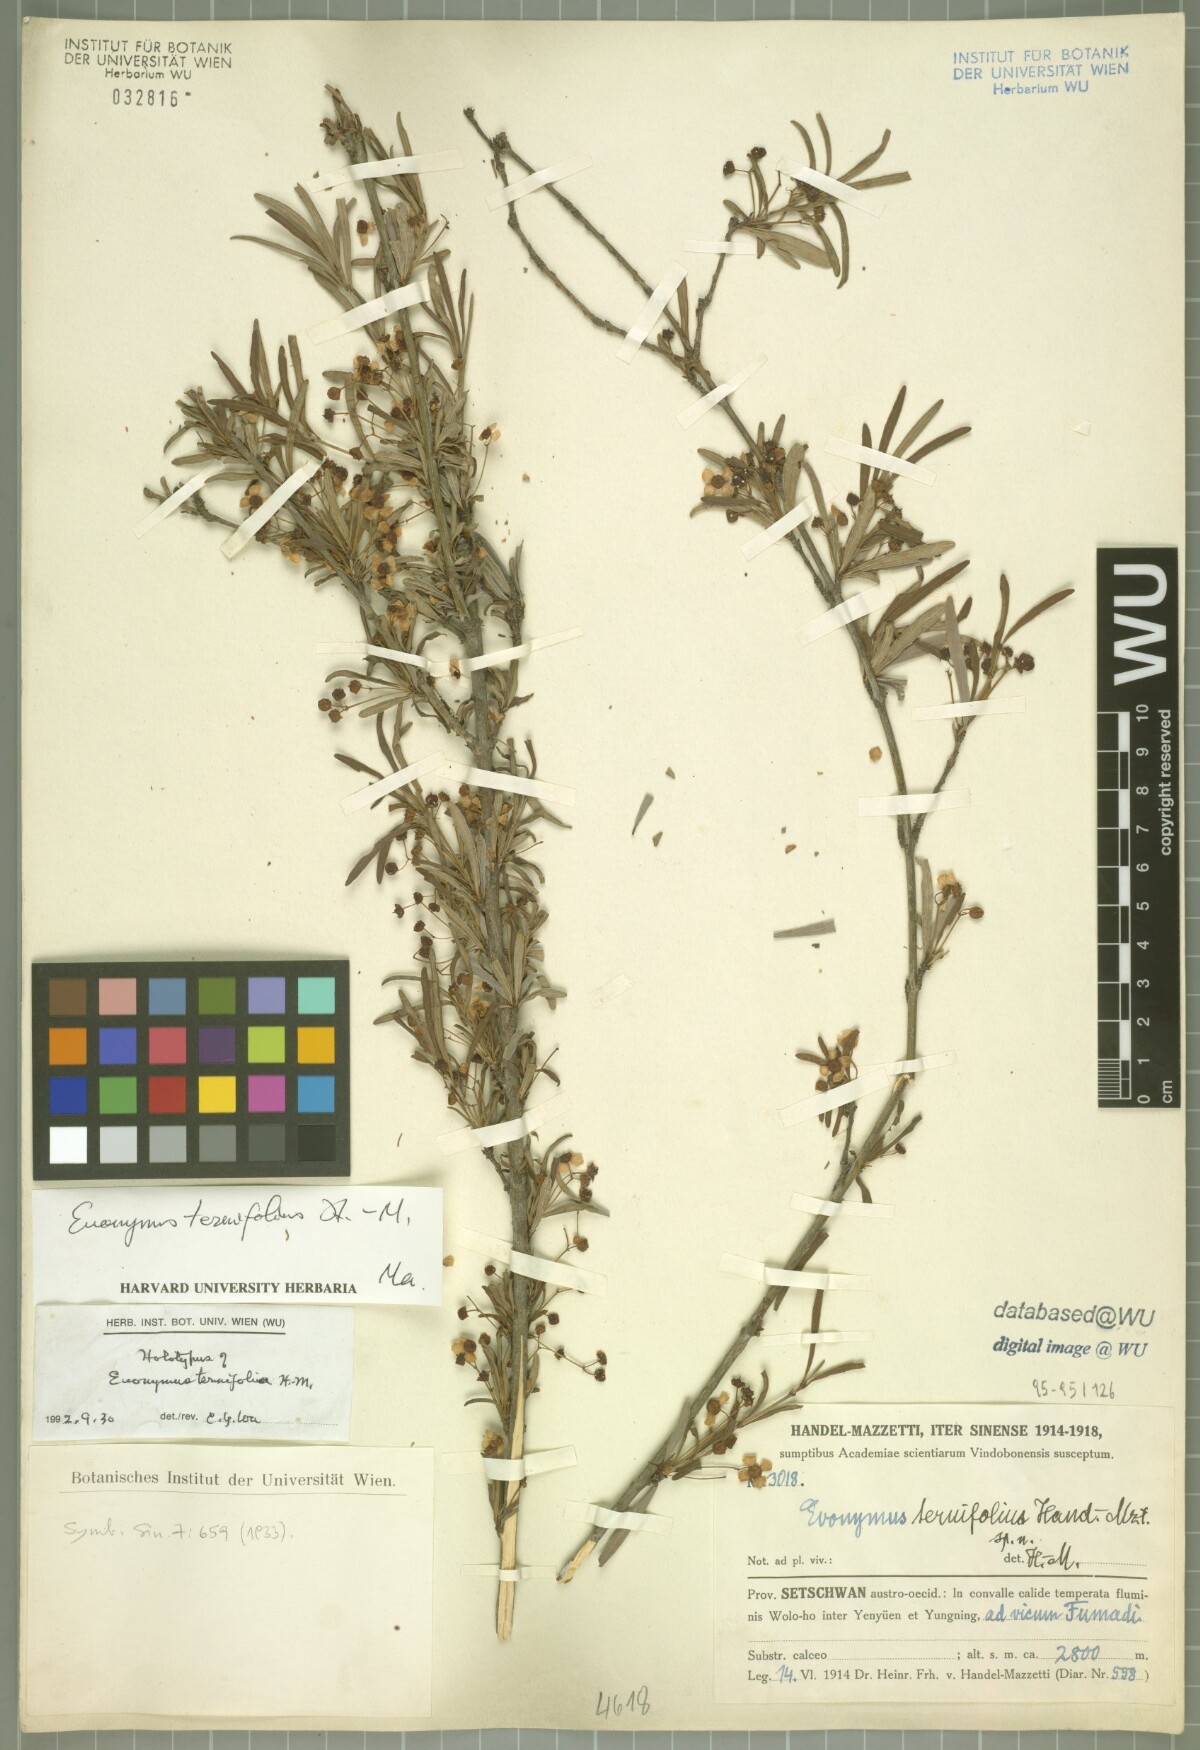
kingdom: Plantae
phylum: Tracheophyta
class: Magnoliopsida
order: Celastrales
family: Celastraceae
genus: Euonymus
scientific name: Euonymus ternifolius
